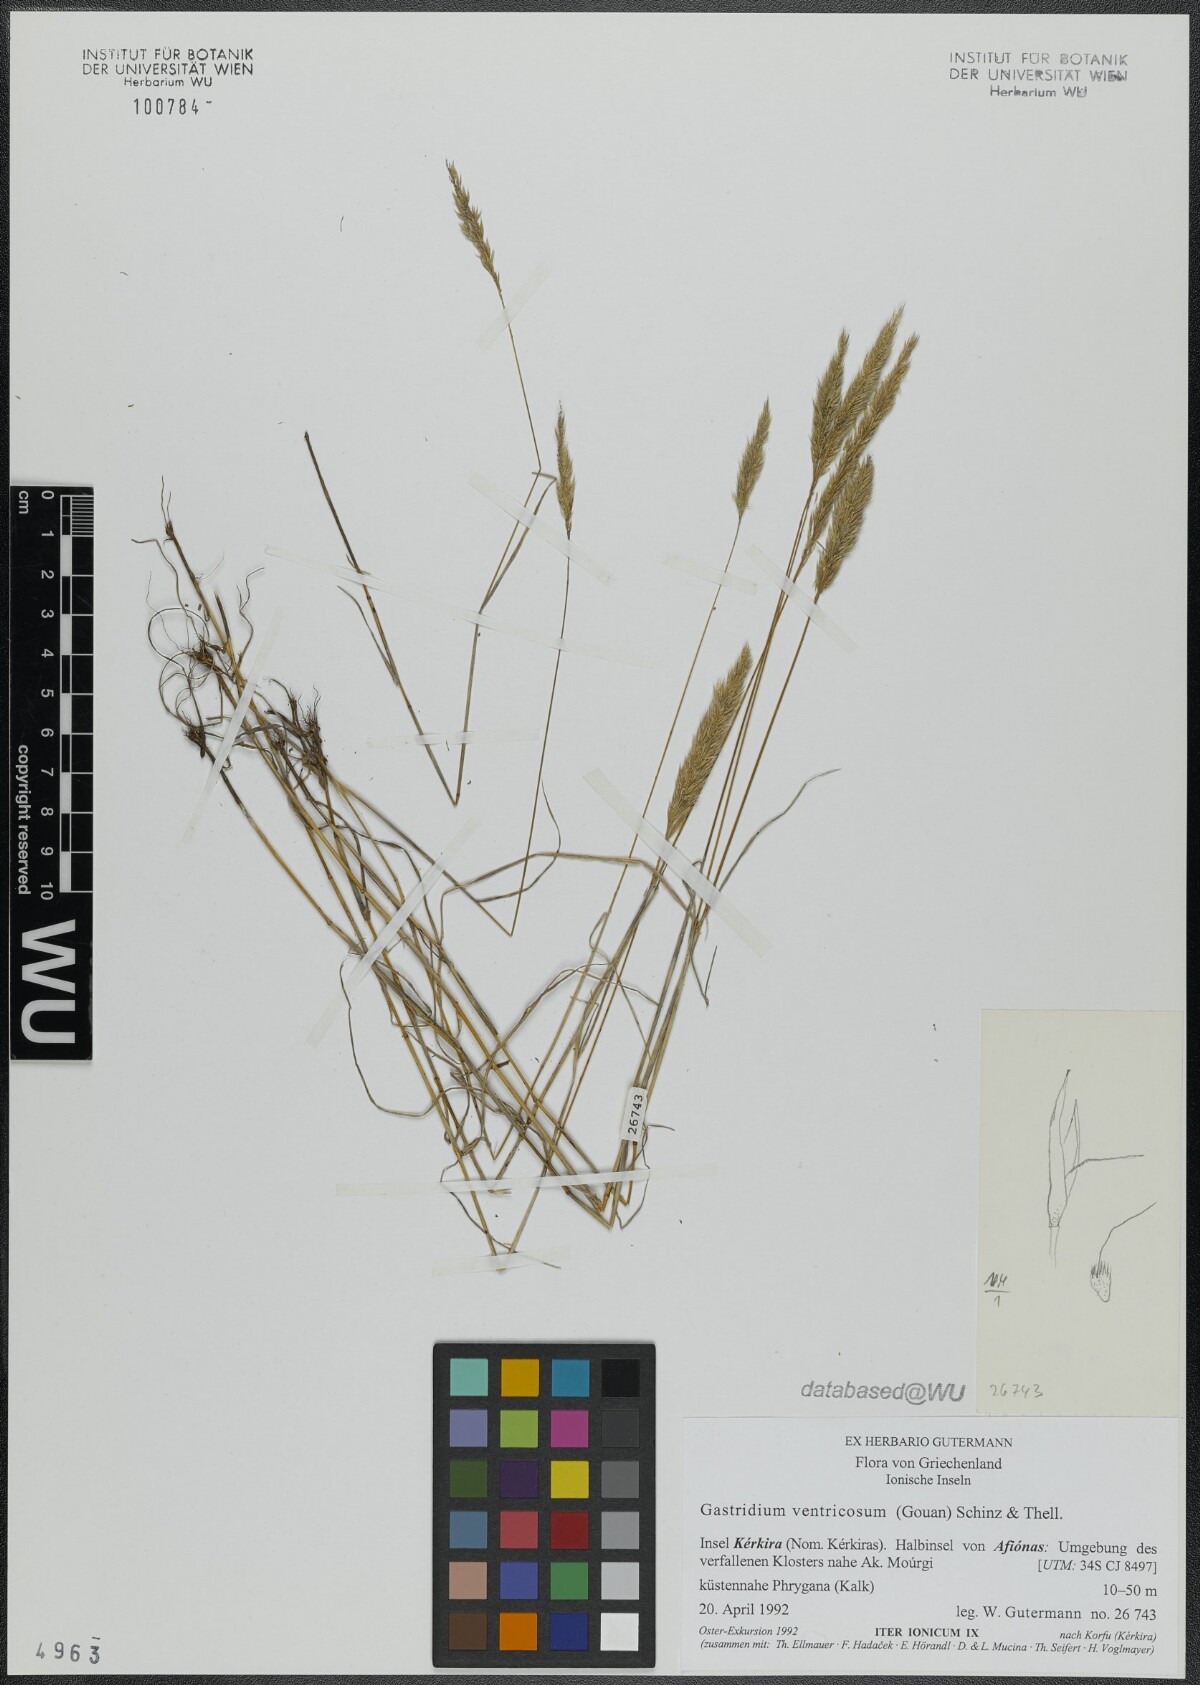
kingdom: Plantae
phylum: Tracheophyta
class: Liliopsida
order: Poales
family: Poaceae
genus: Gastridium
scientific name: Gastridium ventricosum
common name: Nit-grass
